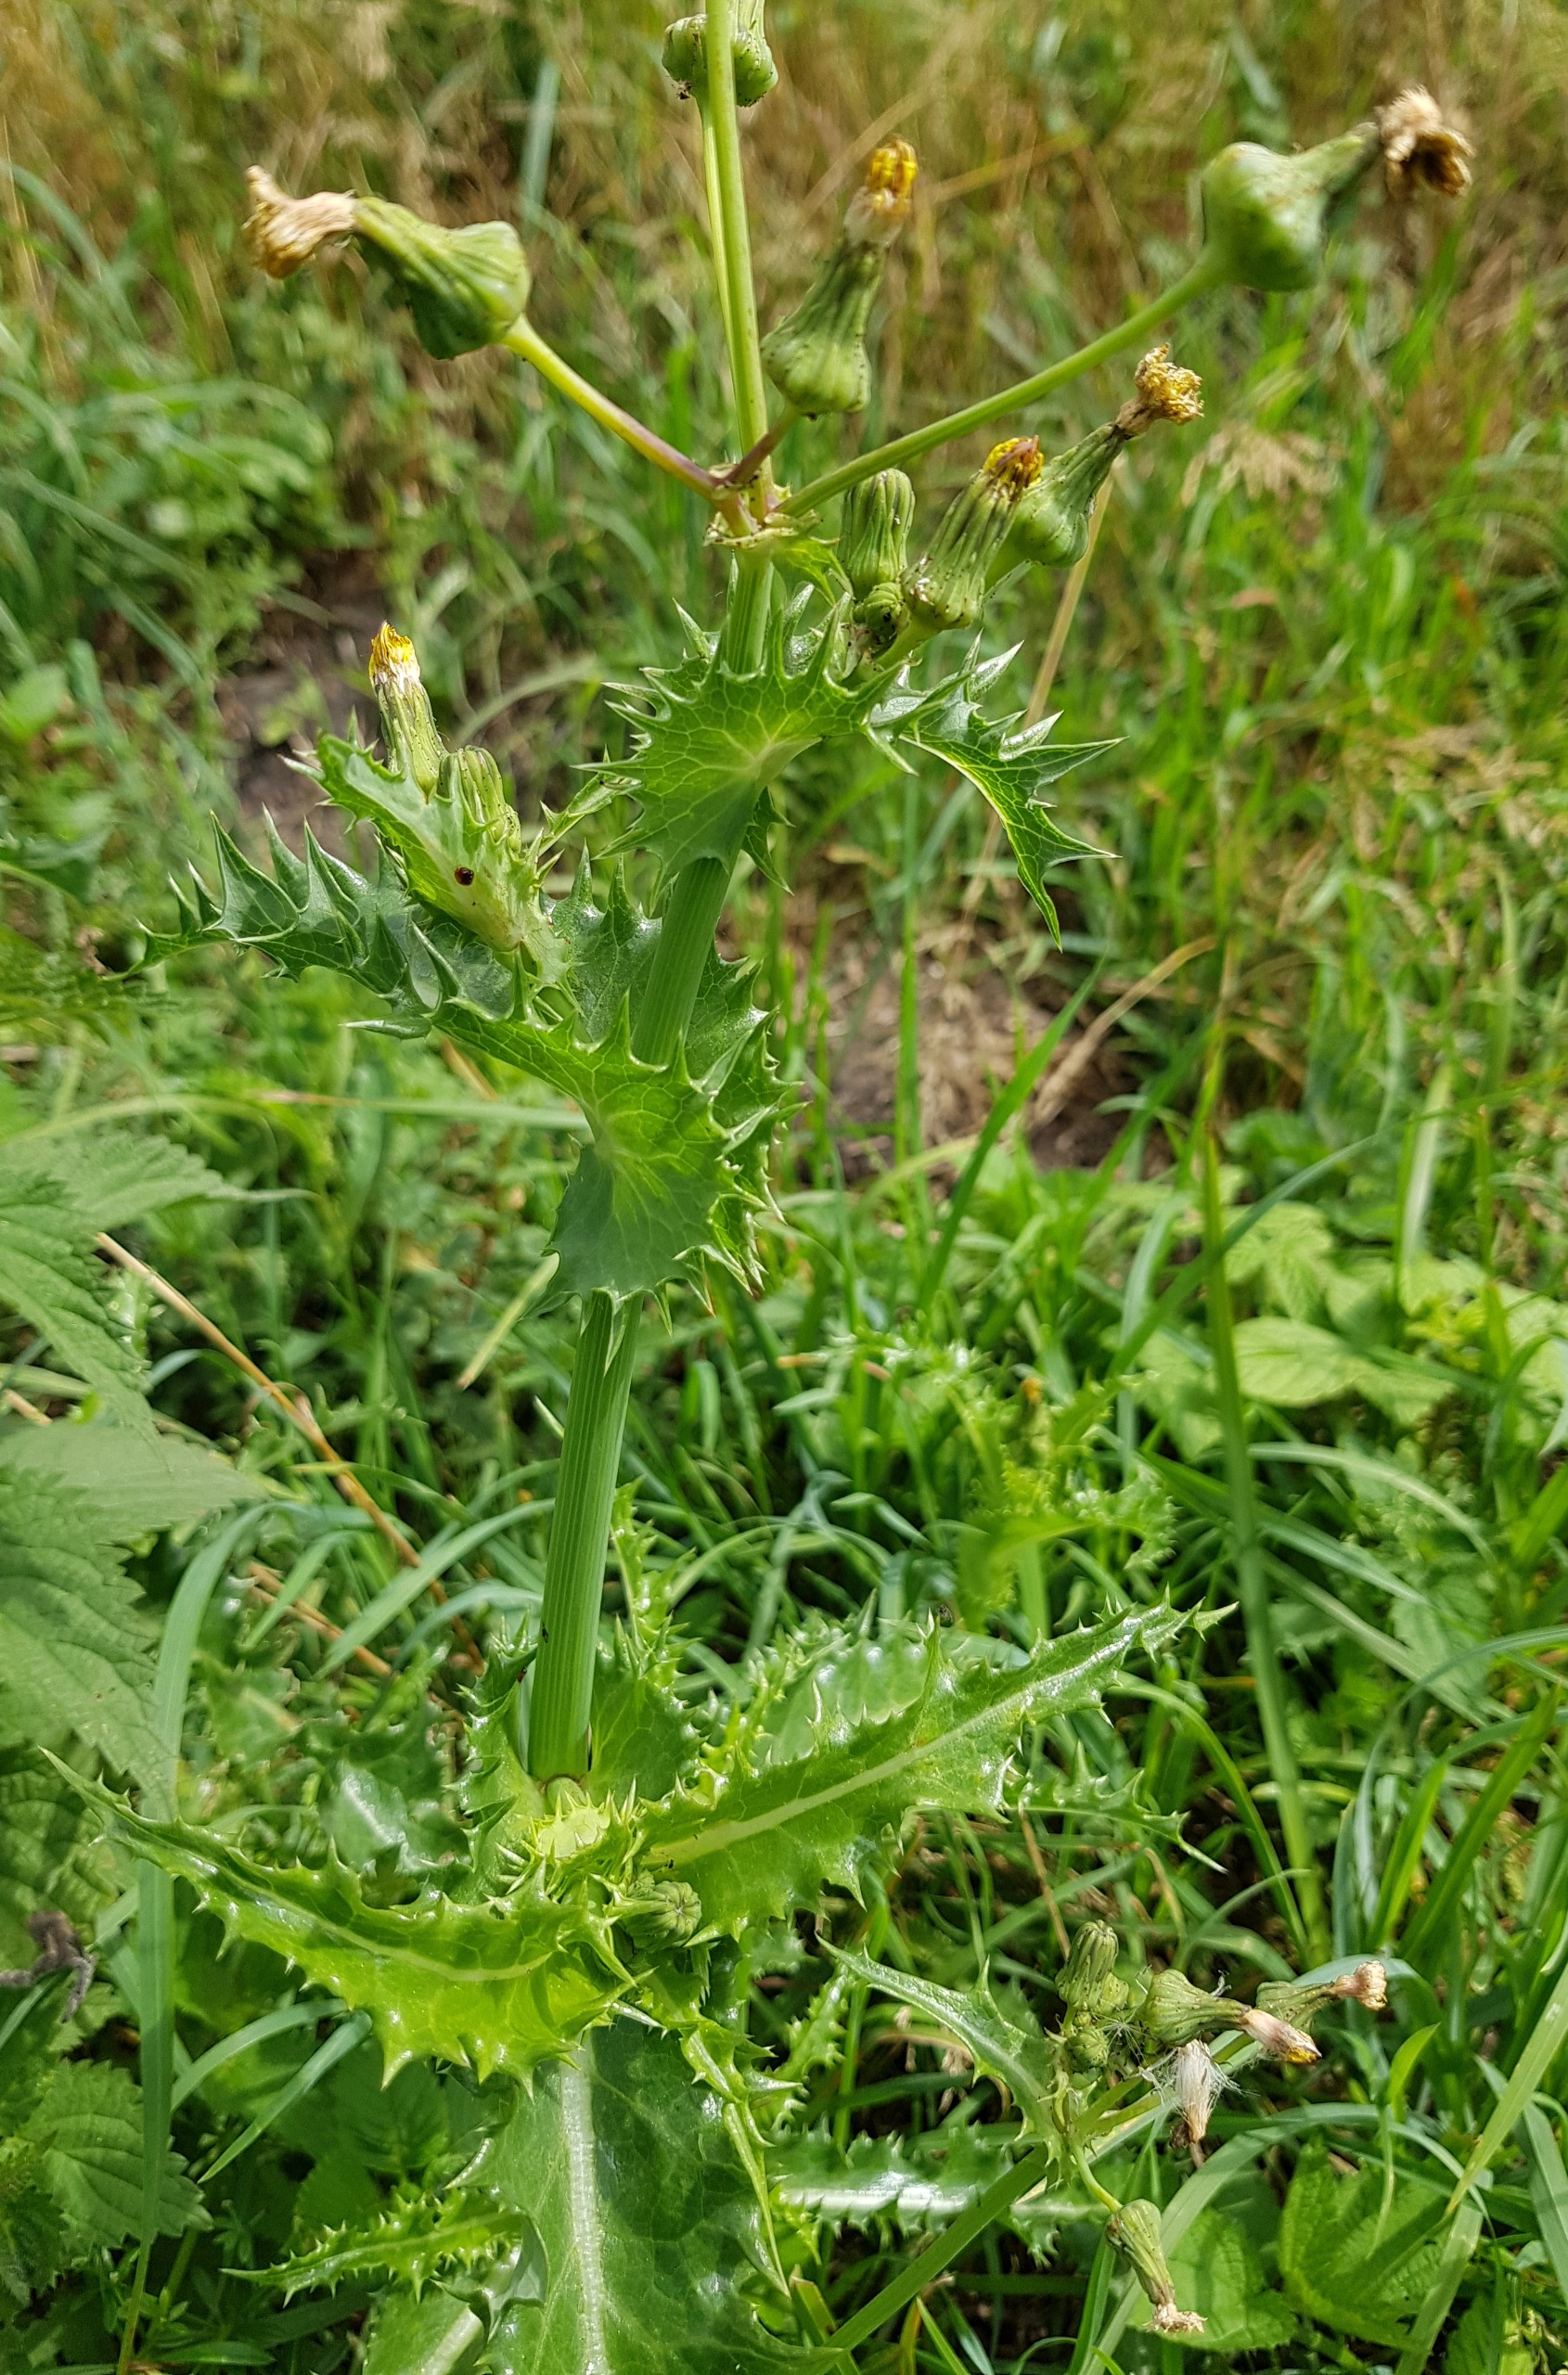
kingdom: Plantae
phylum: Tracheophyta
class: Magnoliopsida
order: Asterales
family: Asteraceae
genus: Sonchus
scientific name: Sonchus asper
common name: Ru svinemælk
